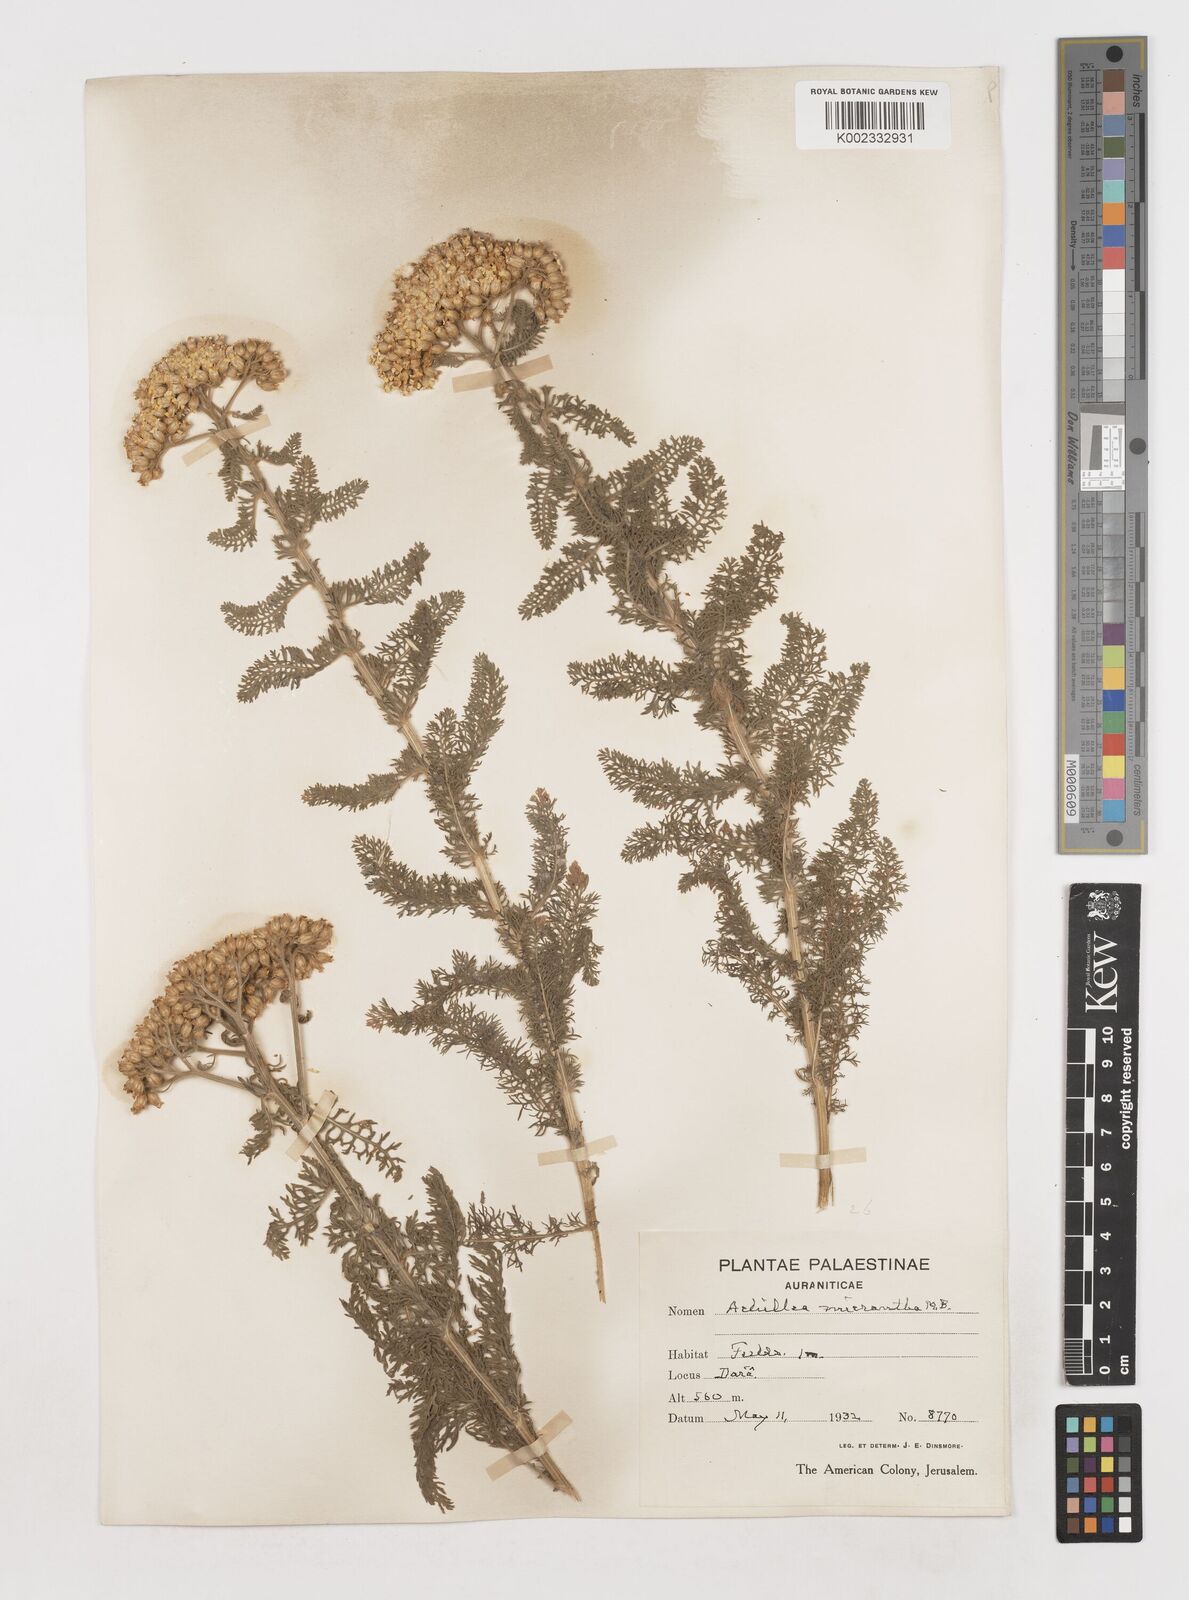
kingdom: Plantae
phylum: Tracheophyta
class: Magnoliopsida
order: Asterales
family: Asteraceae
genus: Achillea
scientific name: Achillea arabica
